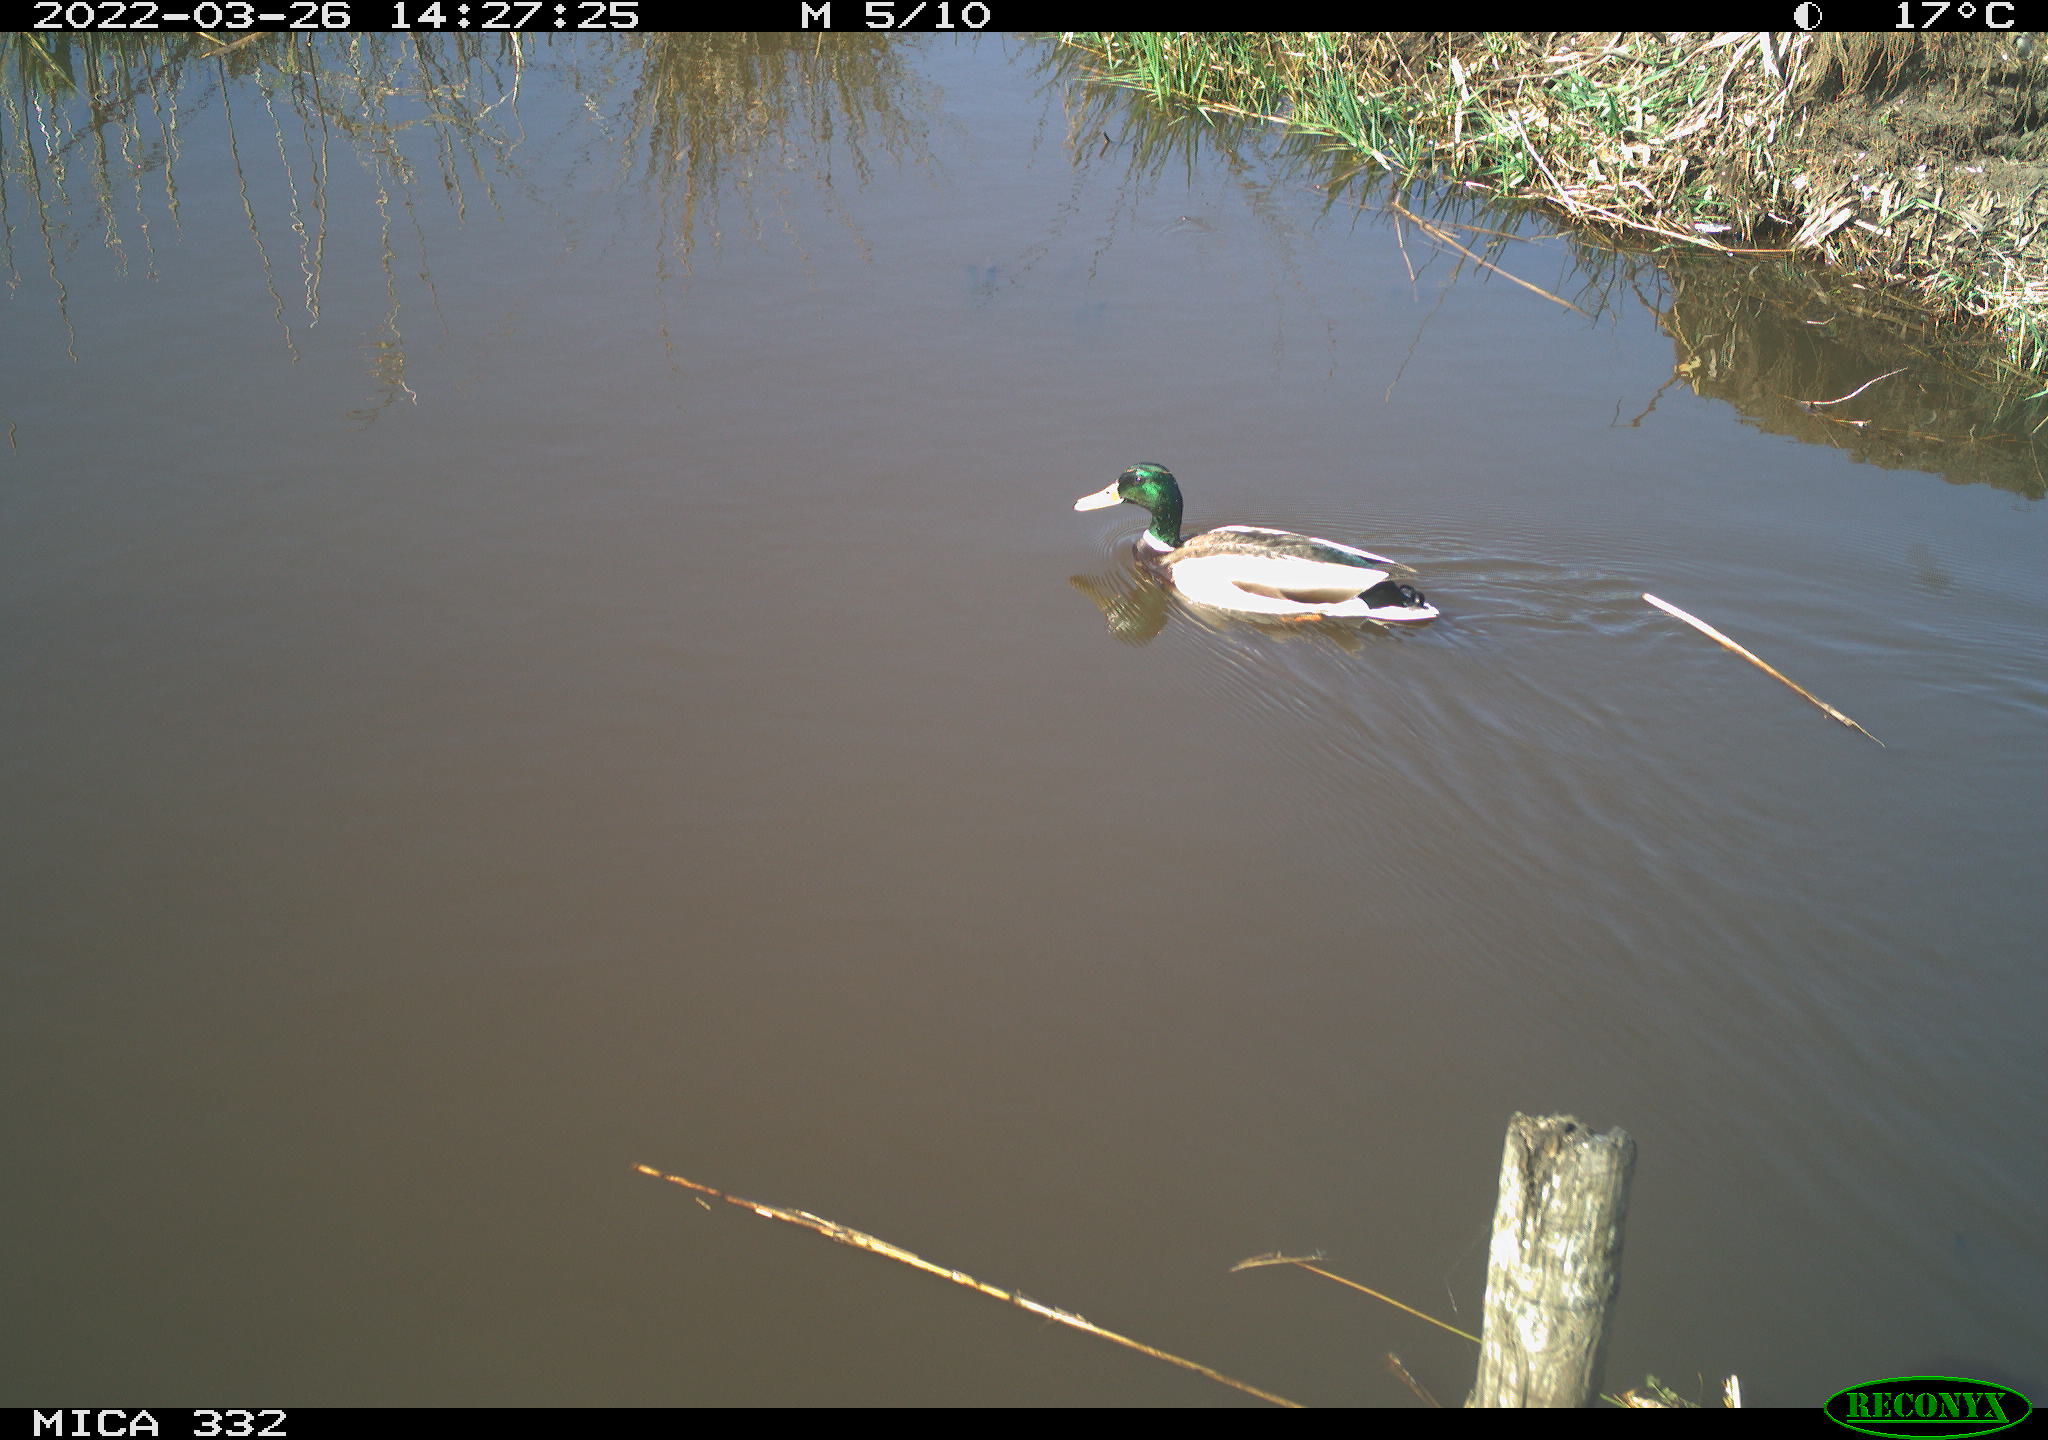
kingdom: Animalia
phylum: Chordata
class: Aves
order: Anseriformes
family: Anatidae
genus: Anas
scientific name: Anas platyrhynchos
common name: Mallard
